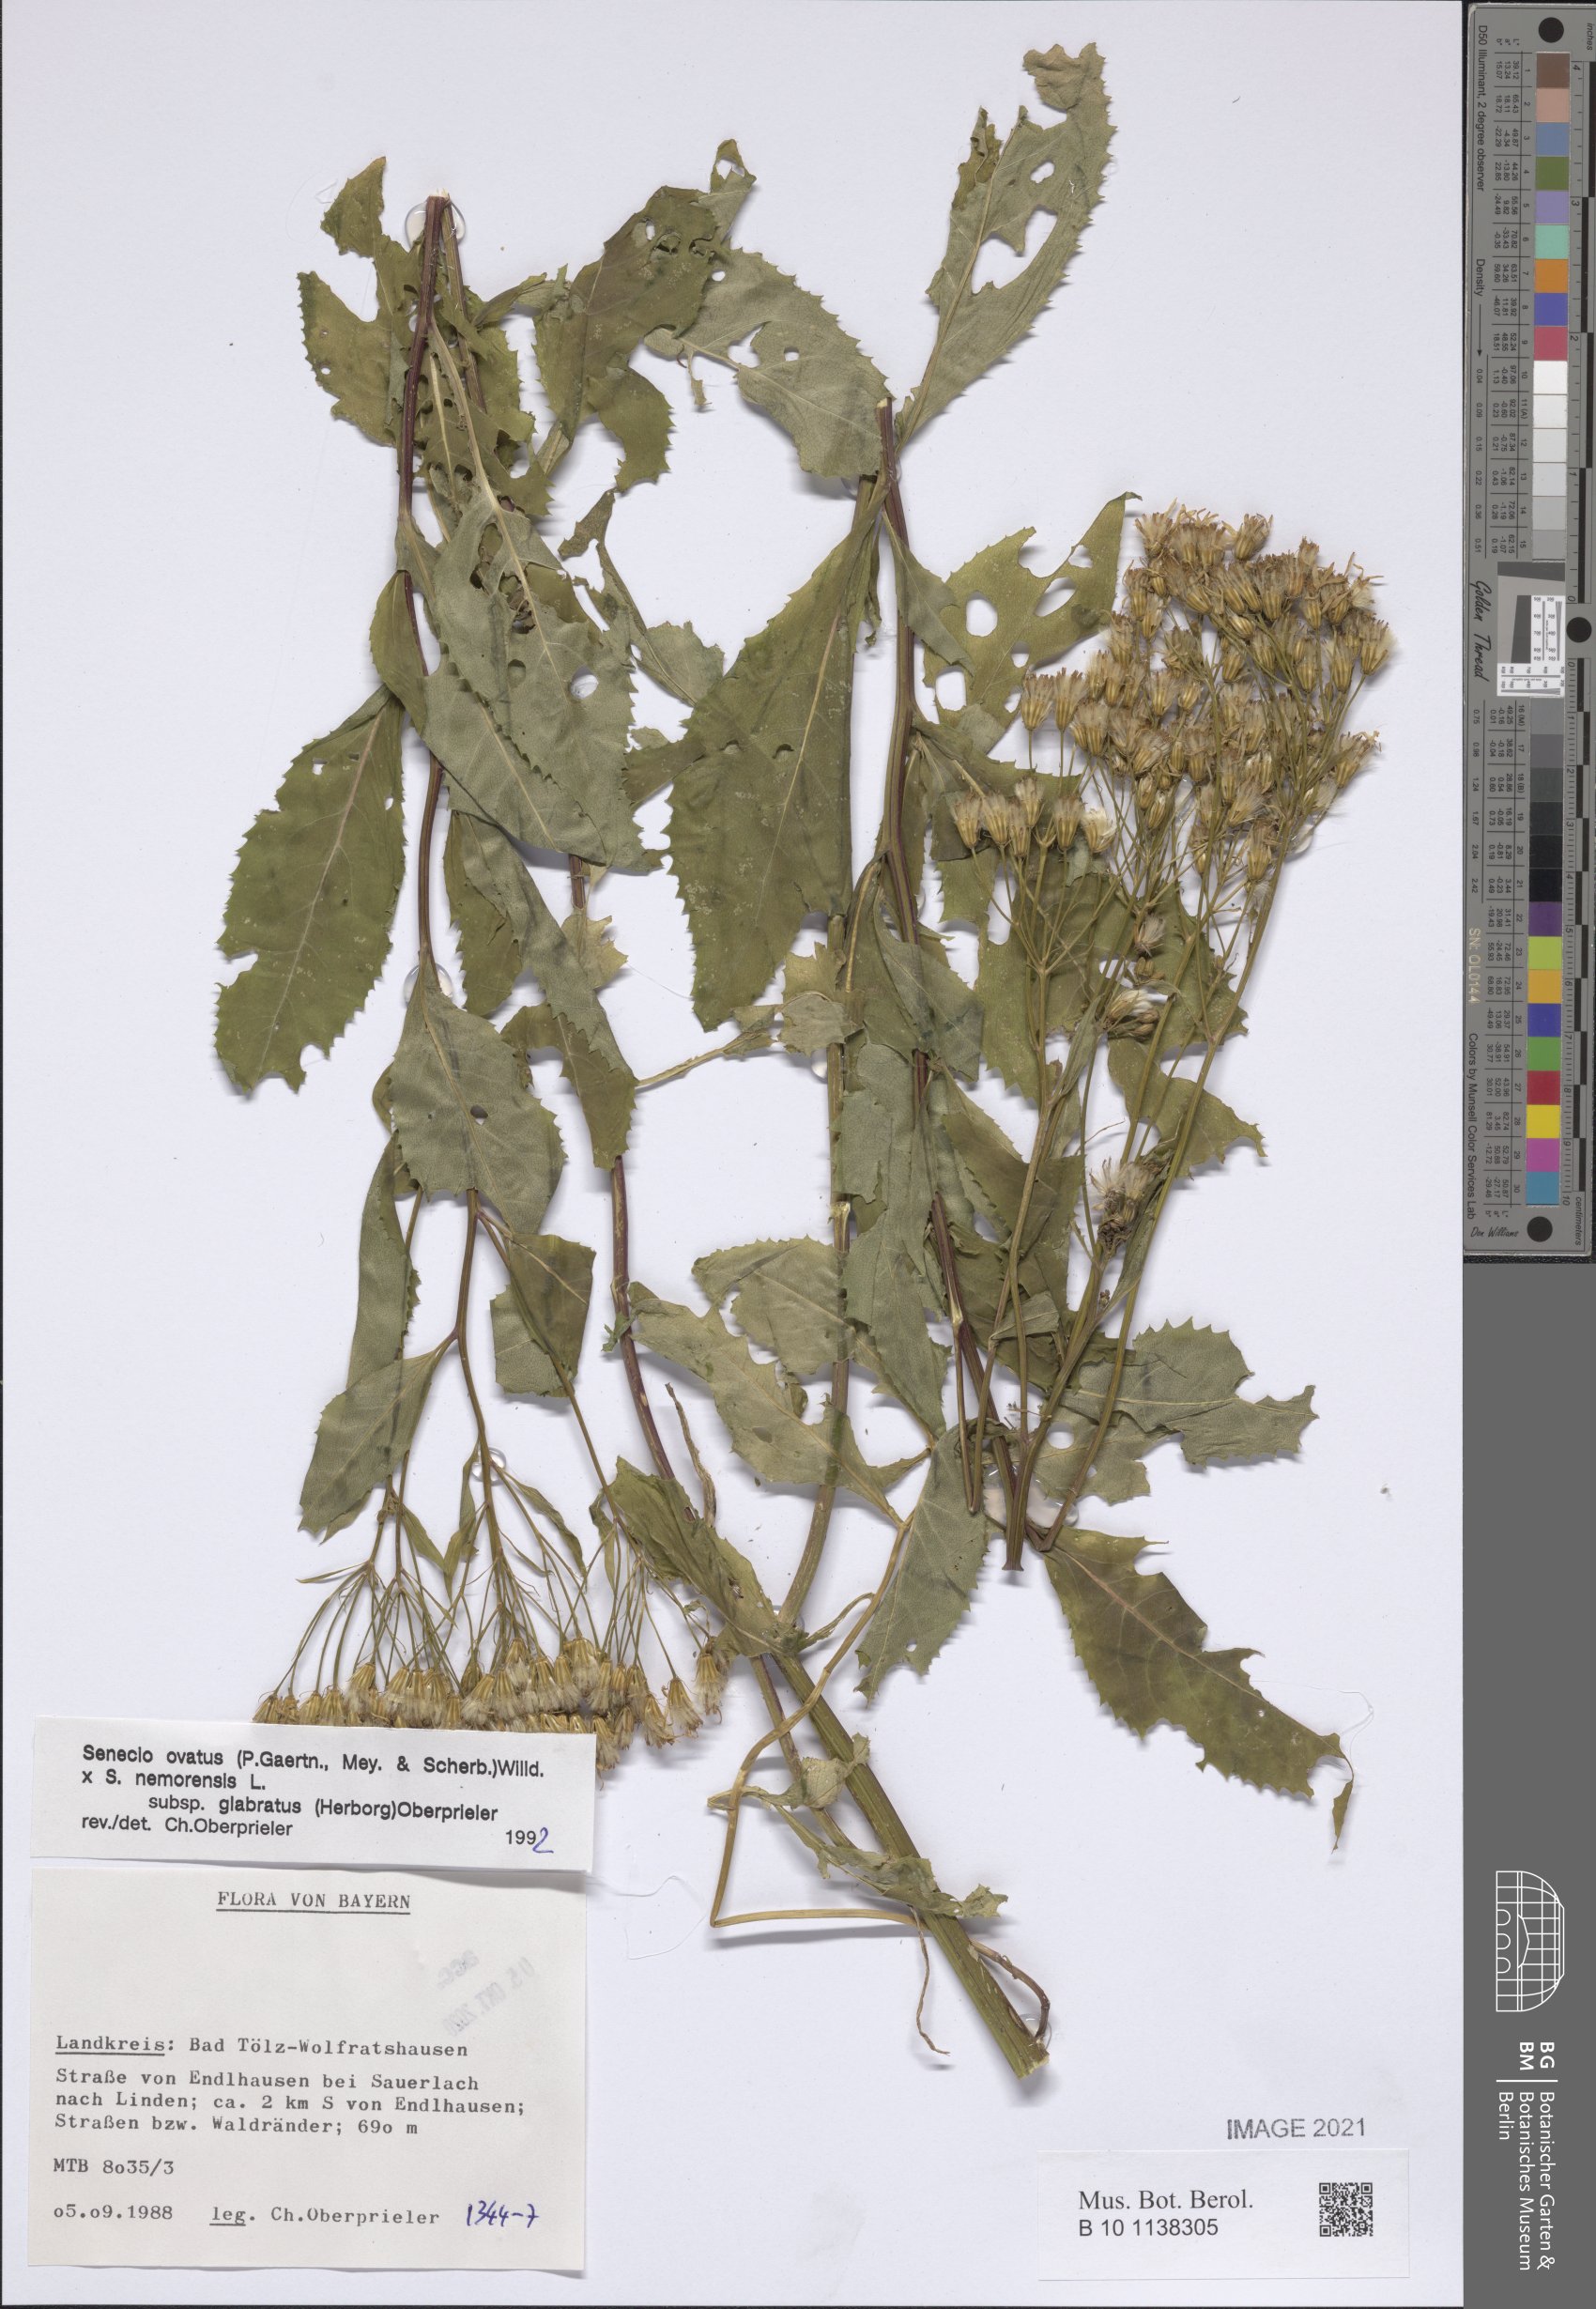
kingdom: Plantae
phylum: Tracheophyta
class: Magnoliopsida
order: Asterales
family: Asteraceae
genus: Senecio
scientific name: Senecio ovatus
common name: Wood ragwort
